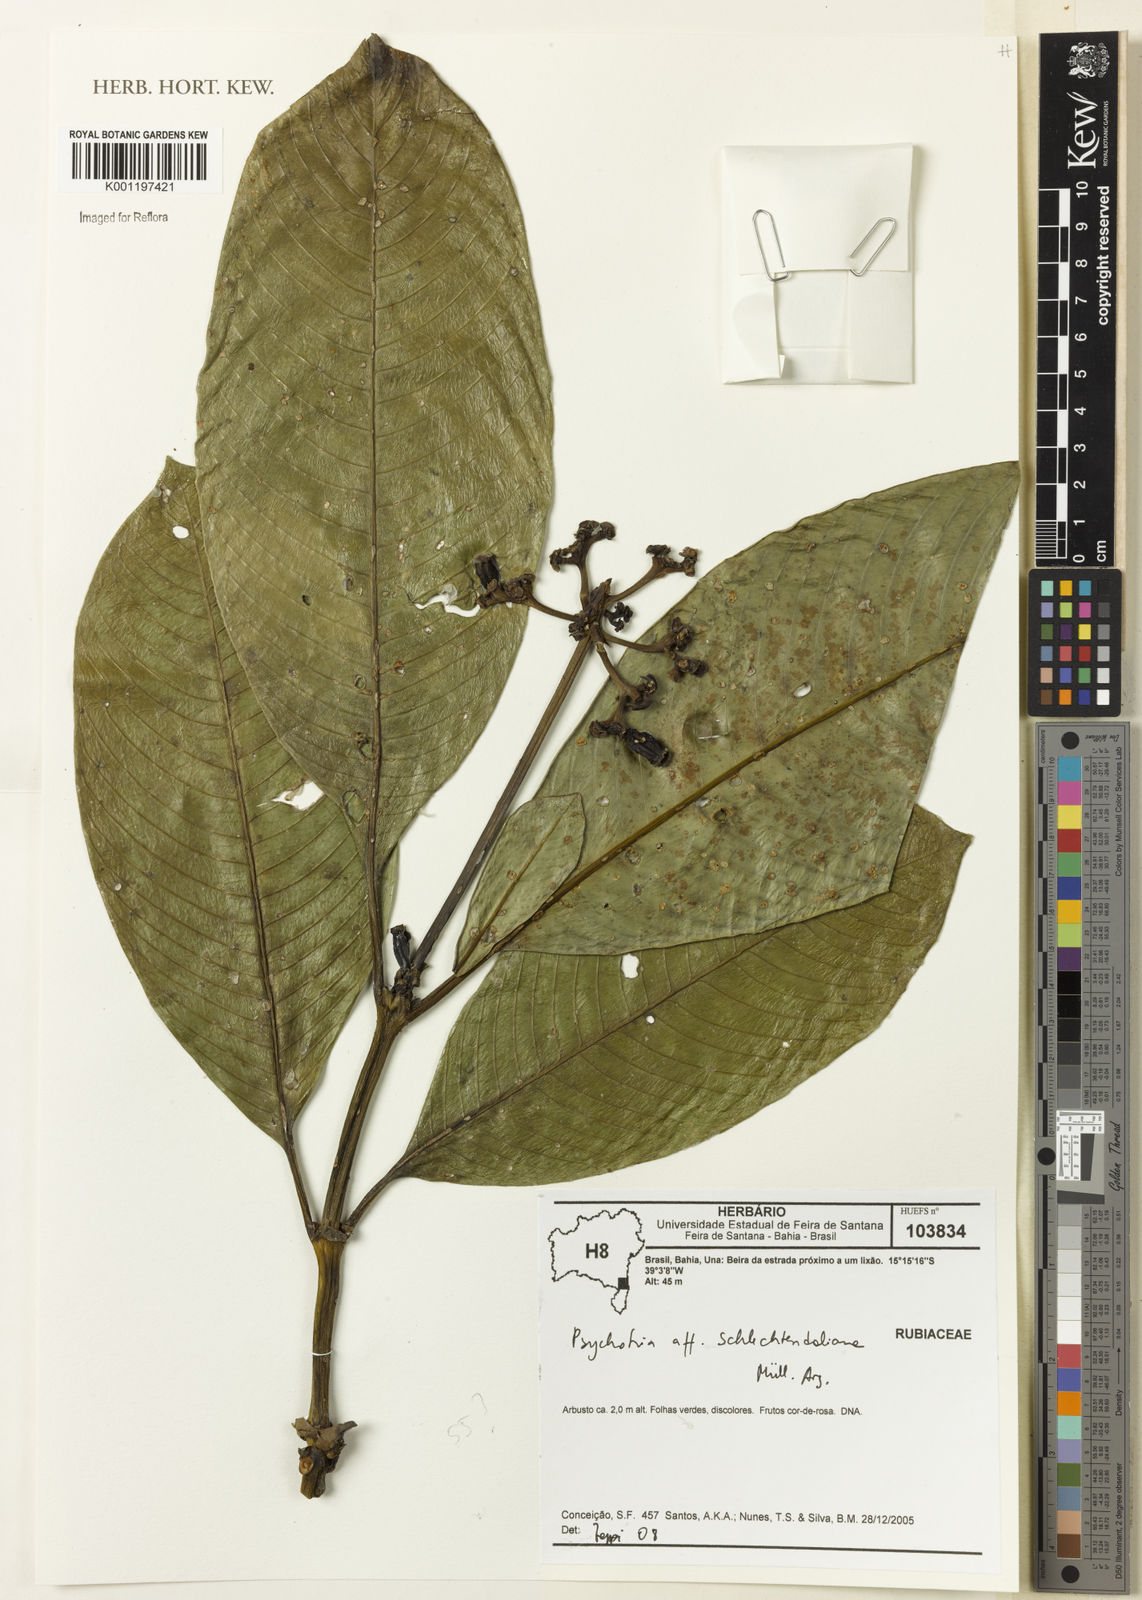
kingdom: Plantae
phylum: Tracheophyta
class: Magnoliopsida
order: Gentianales
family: Rubiaceae
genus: Psychotria
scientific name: Psychotria
